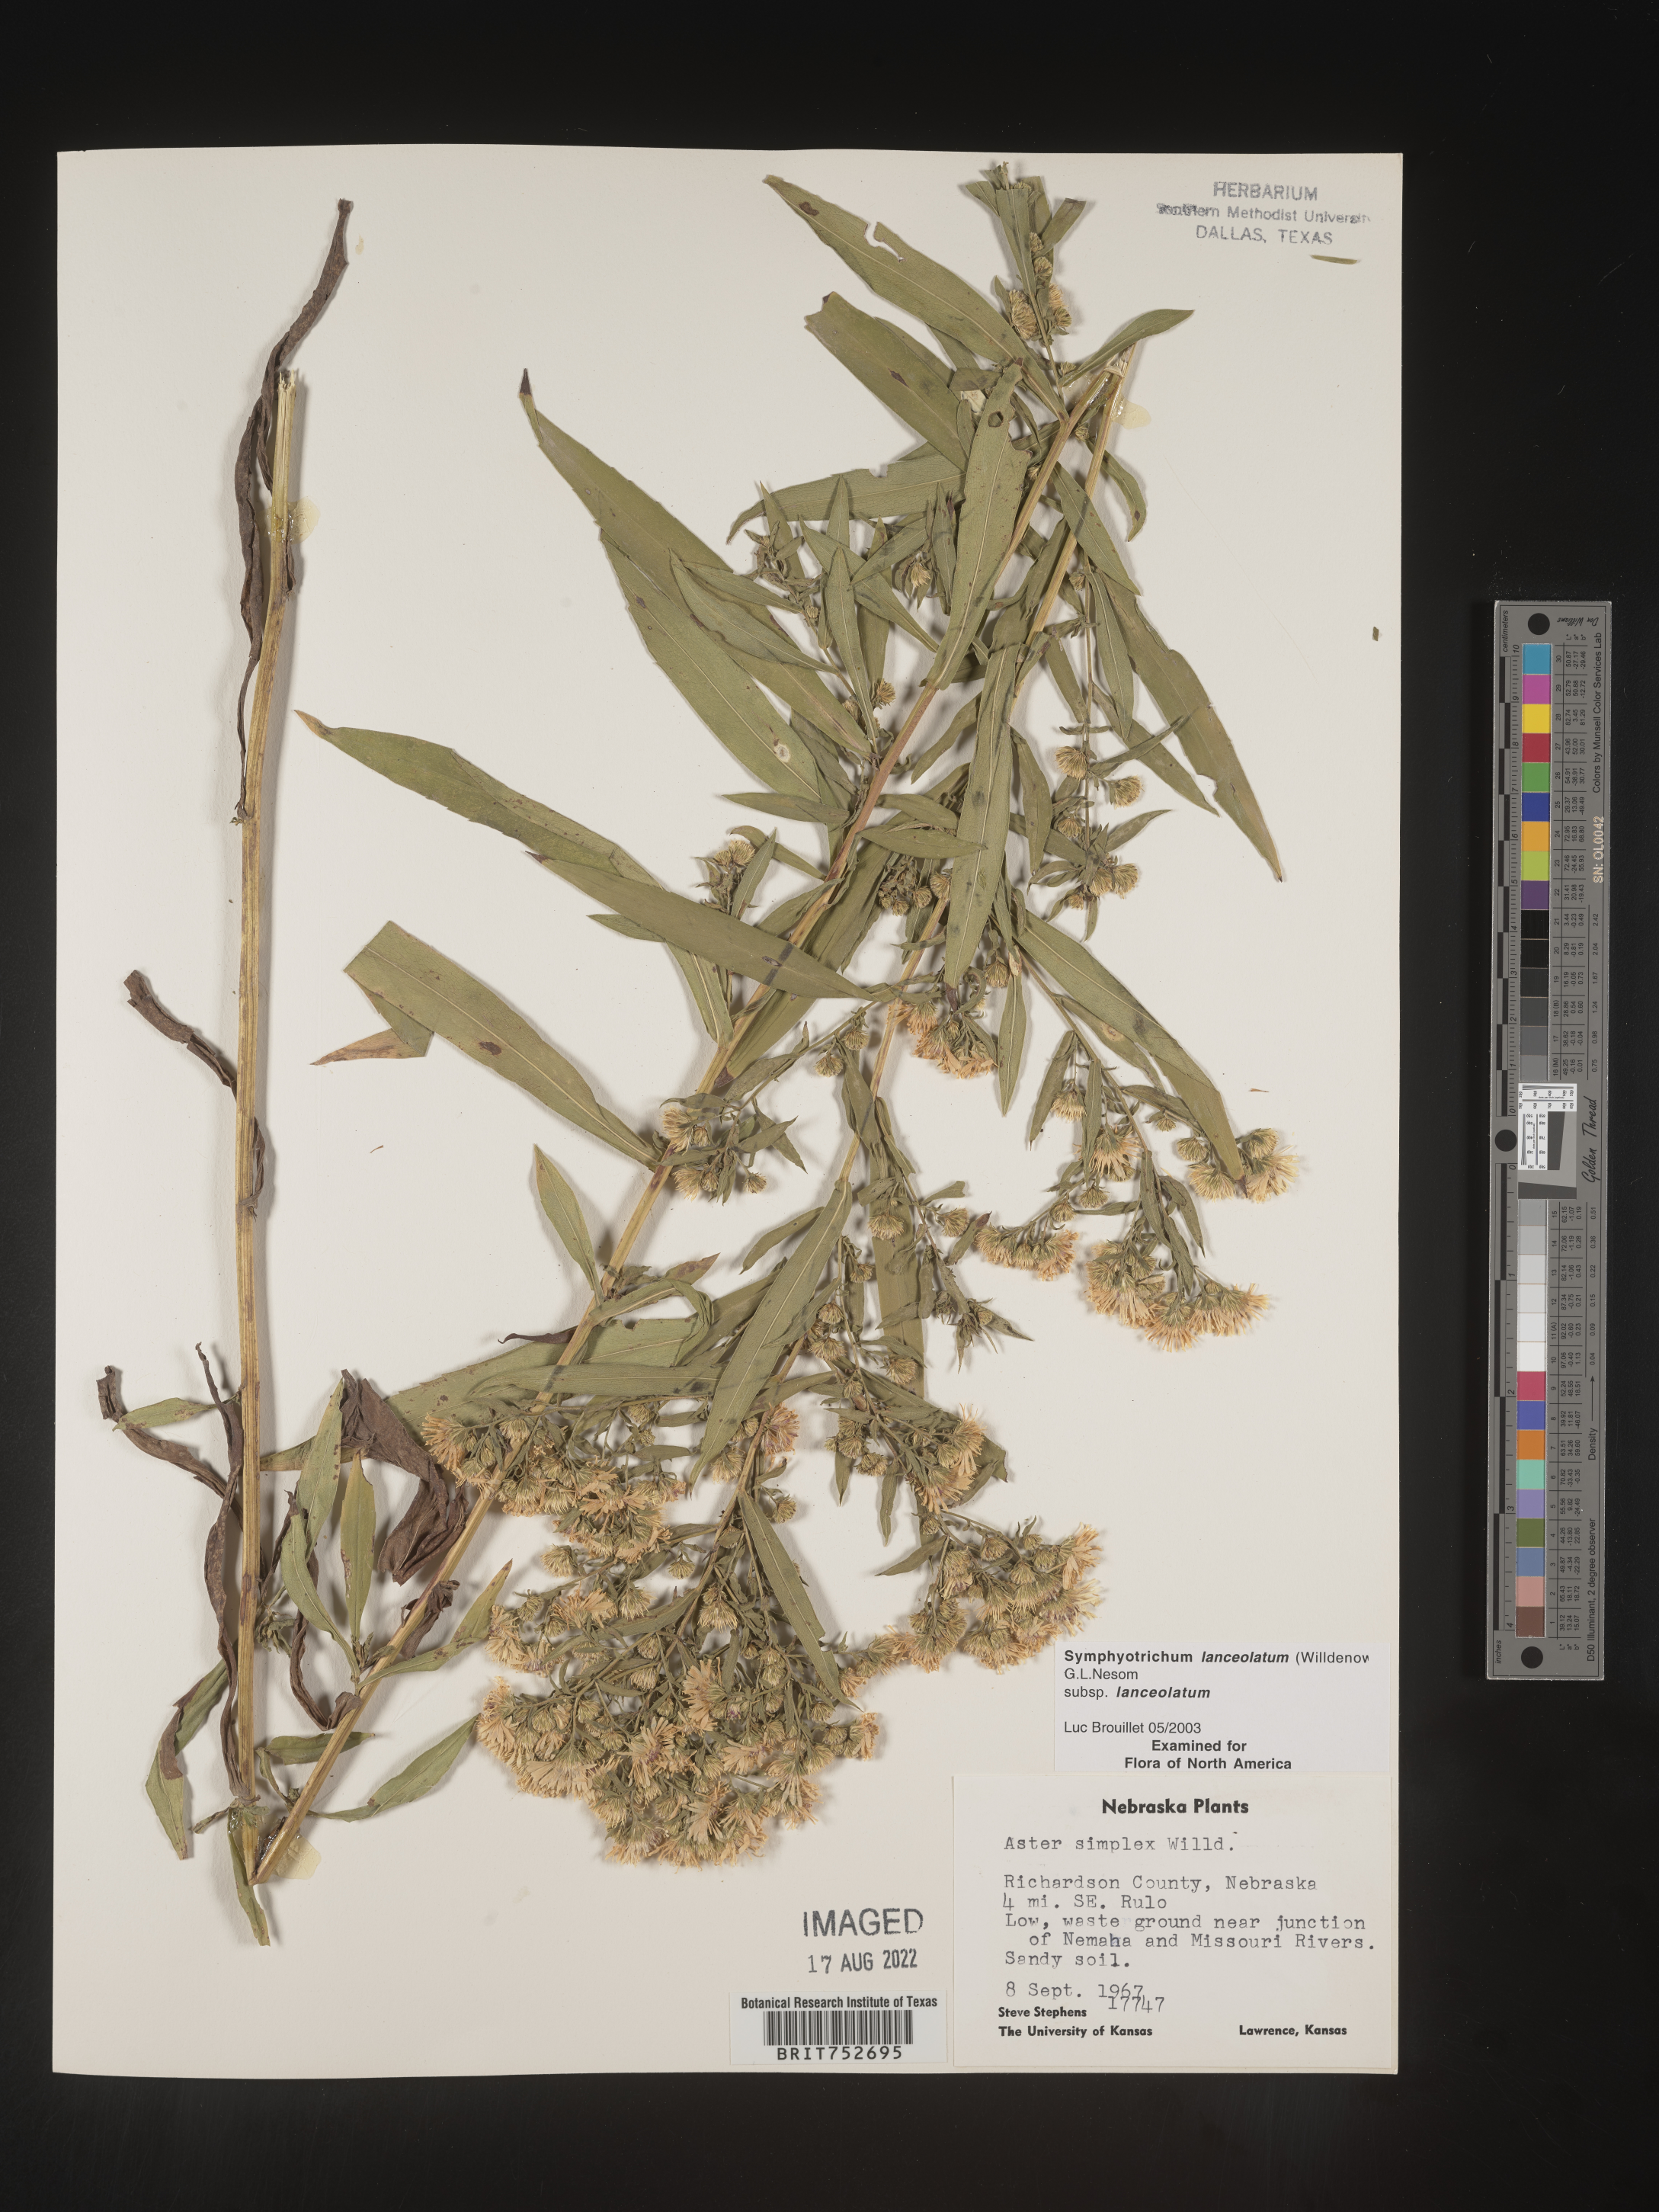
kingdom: Plantae
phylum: Tracheophyta
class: Magnoliopsida
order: Asterales
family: Asteraceae
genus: Symphyotrichum
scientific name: Symphyotrichum lanceolatum
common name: Panicled aster
